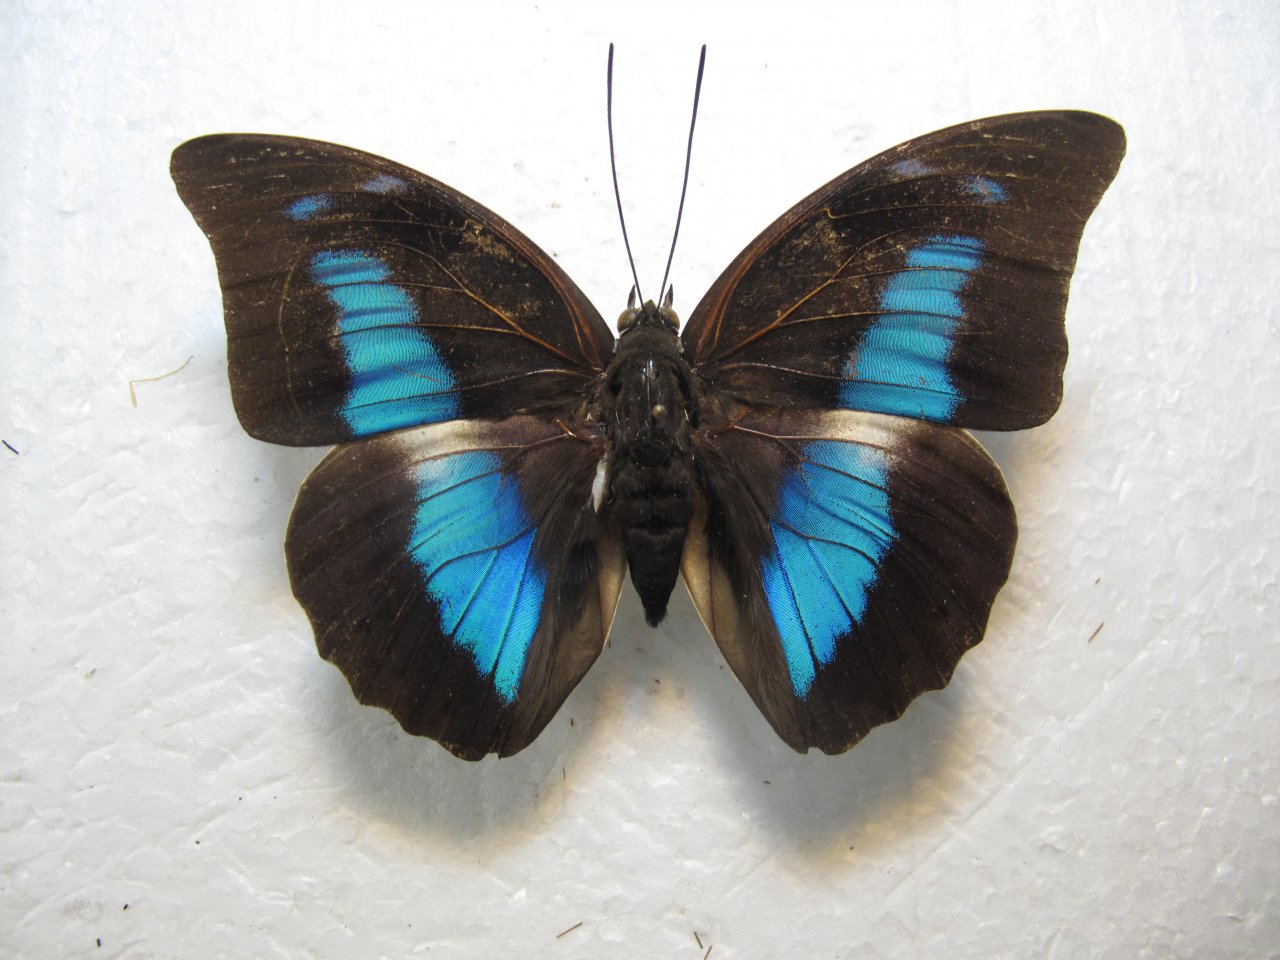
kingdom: Animalia
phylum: Arthropoda
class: Insecta
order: Lepidoptera
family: Nymphalidae
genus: Prepona
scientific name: Prepona demophoon
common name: Two-spotted Prepona
